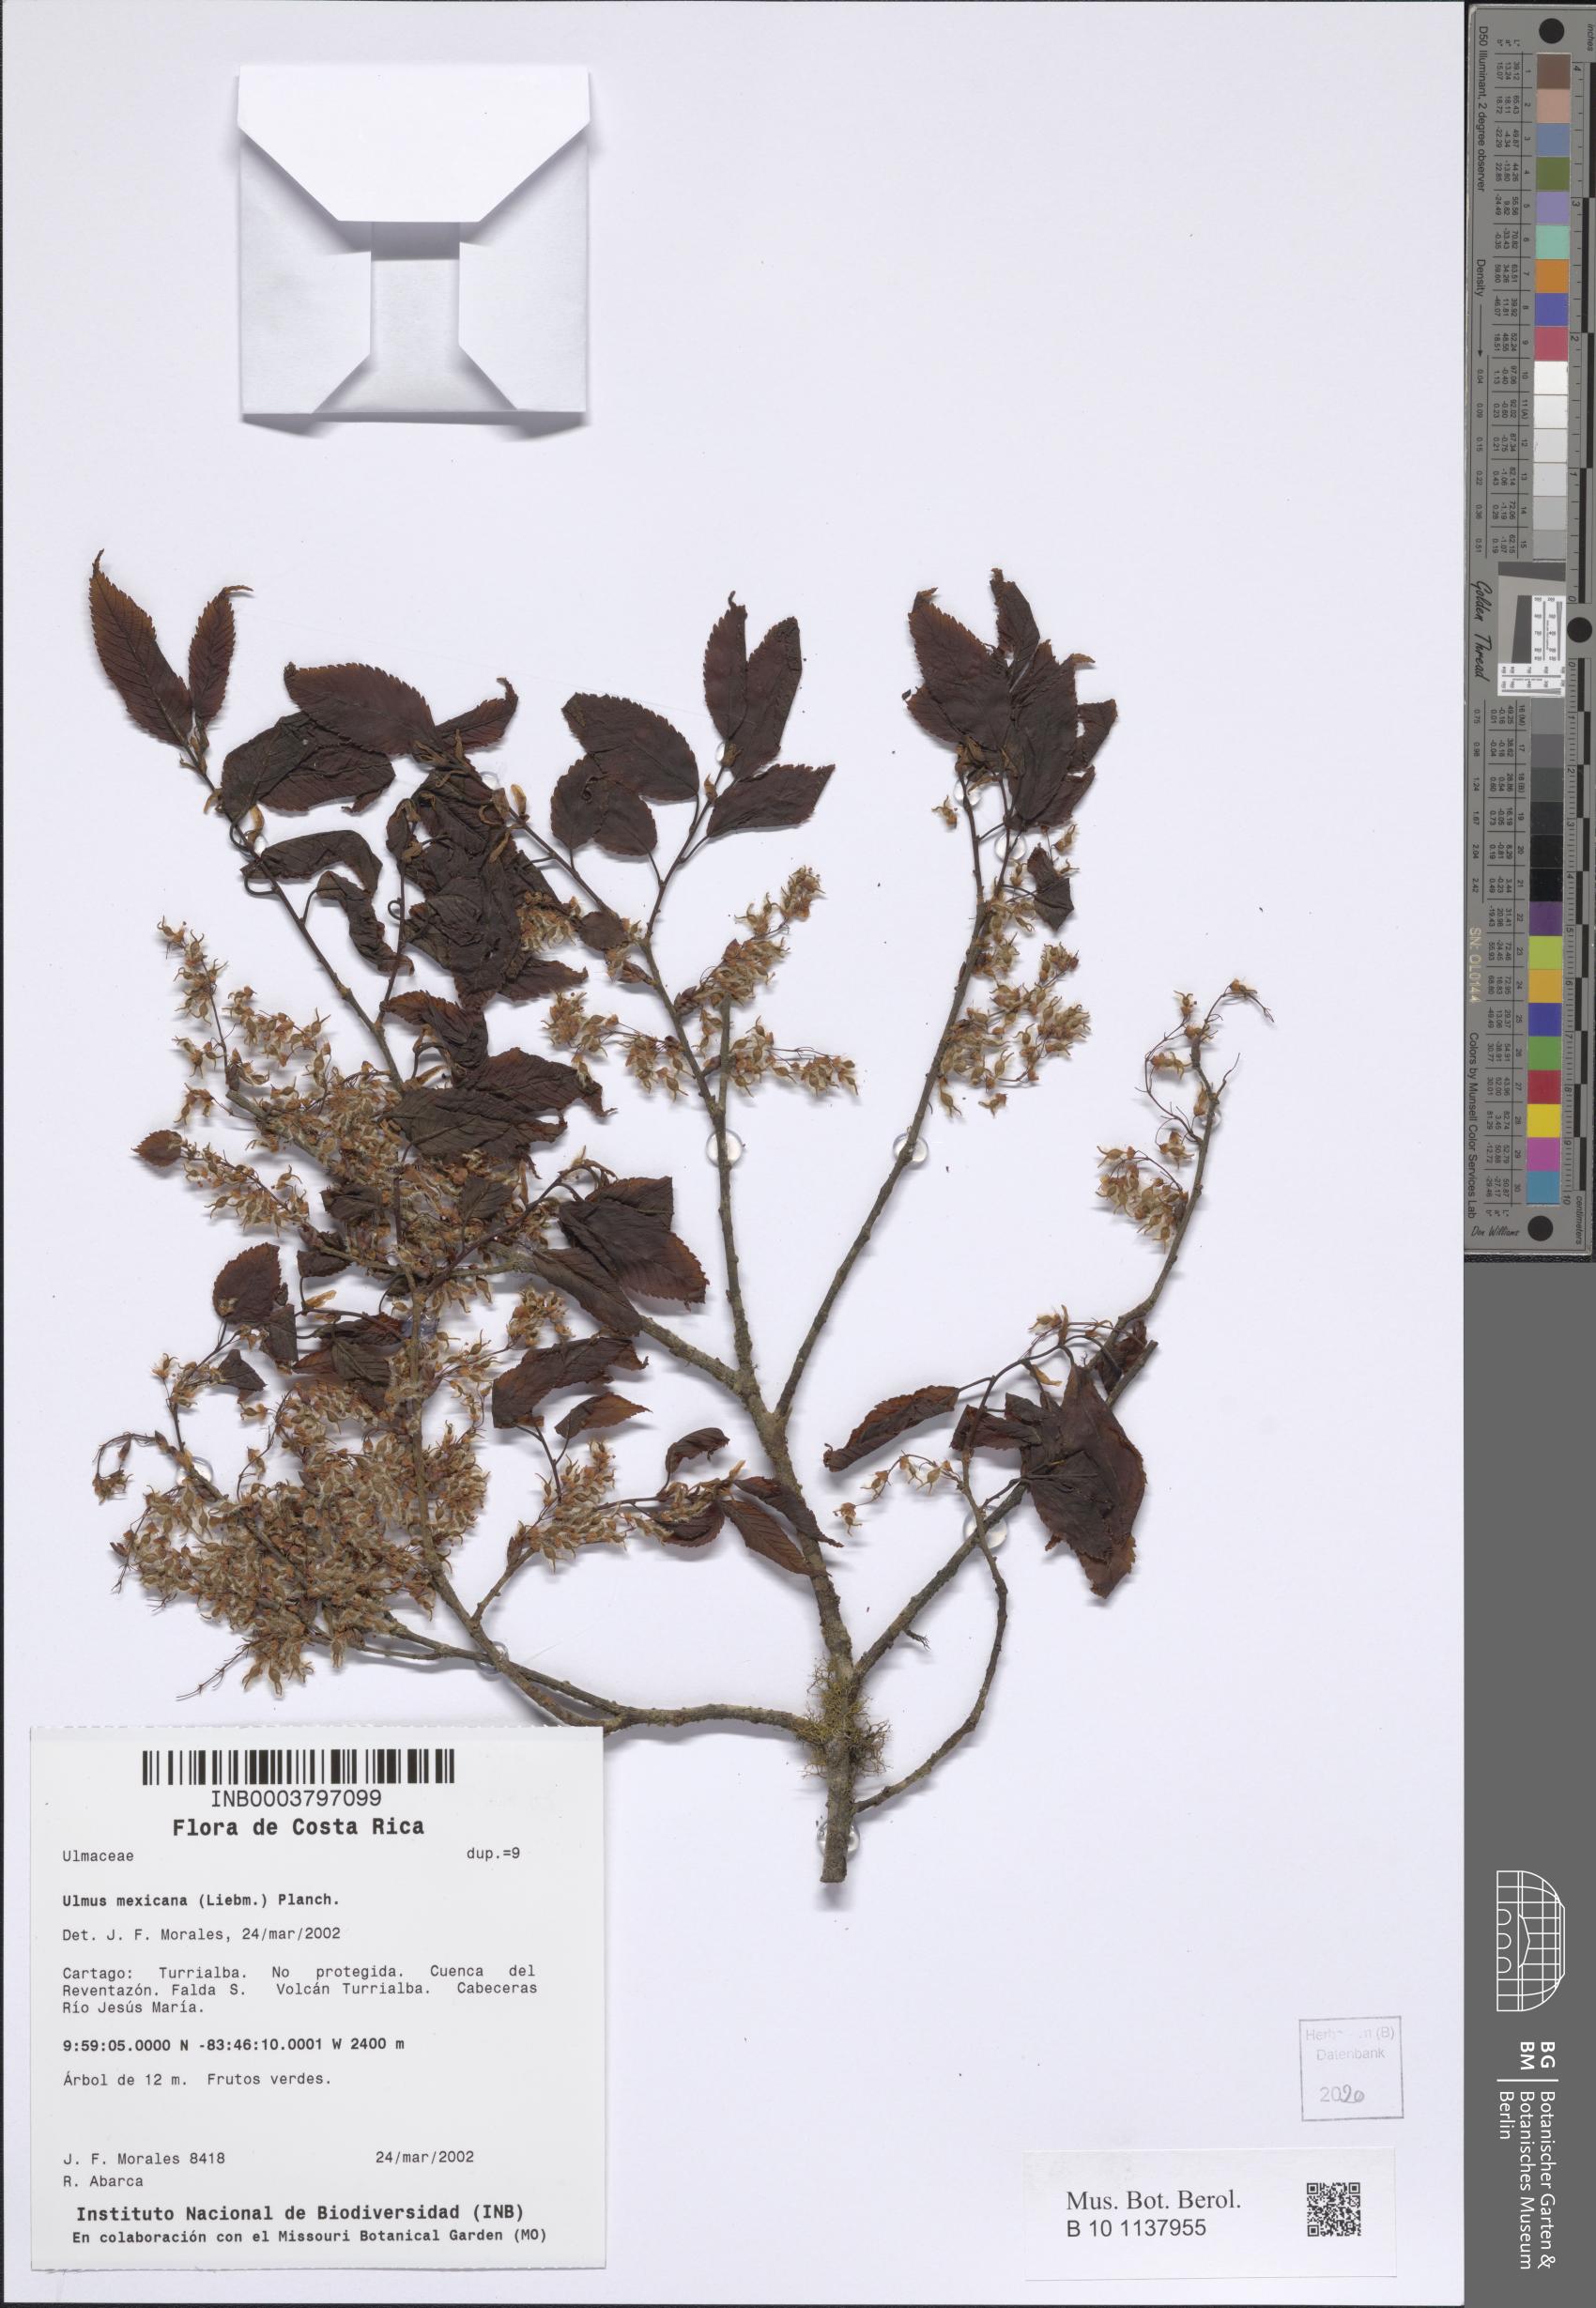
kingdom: Plantae
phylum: Tracheophyta
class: Magnoliopsida
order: Rosales
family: Ulmaceae
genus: Ulmus
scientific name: Ulmus mexicana
